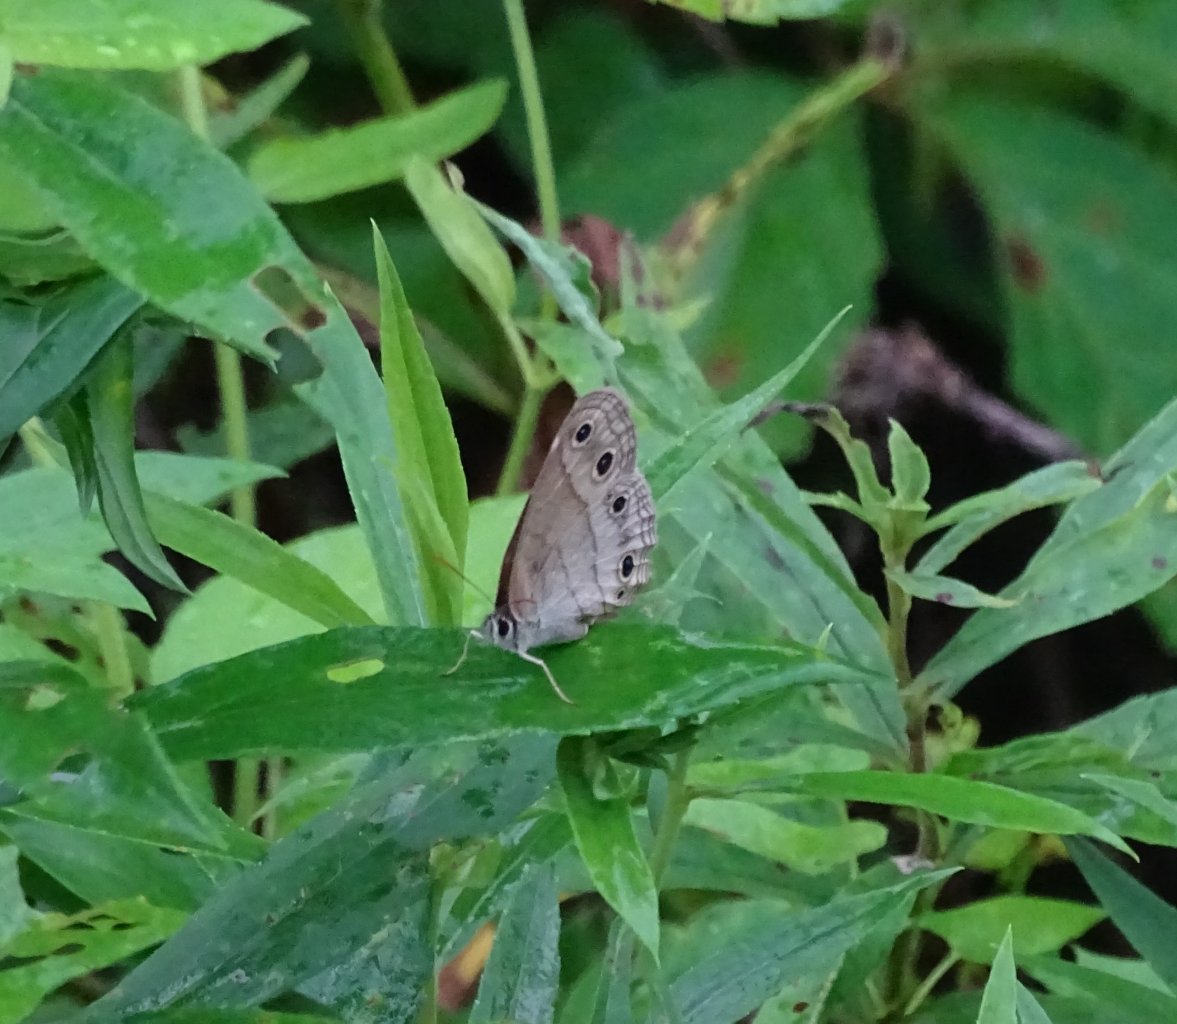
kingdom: Animalia
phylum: Arthropoda
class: Insecta
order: Lepidoptera
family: Nymphalidae
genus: Euptychia
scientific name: Euptychia cymela
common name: Little Wood Satyr
